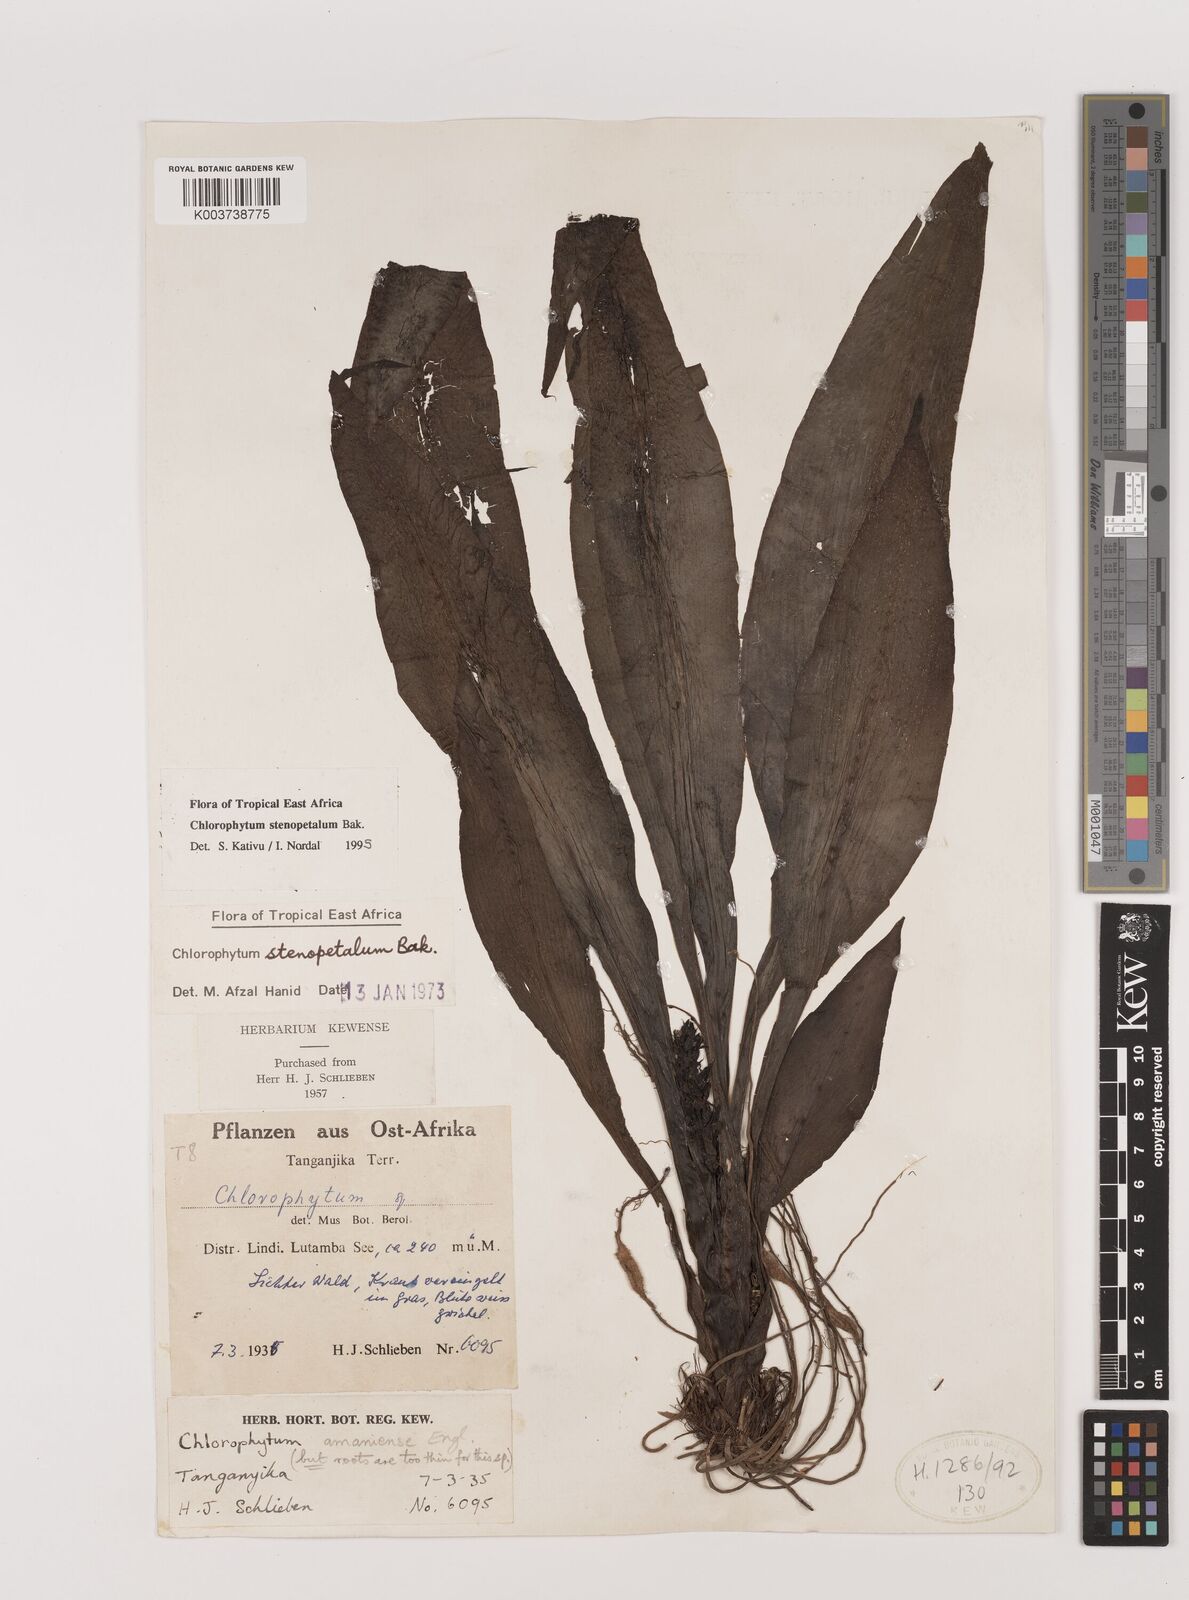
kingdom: Plantae
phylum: Tracheophyta
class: Liliopsida
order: Asparagales
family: Asparagaceae
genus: Chlorophytum
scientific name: Chlorophytum stenopetalum
